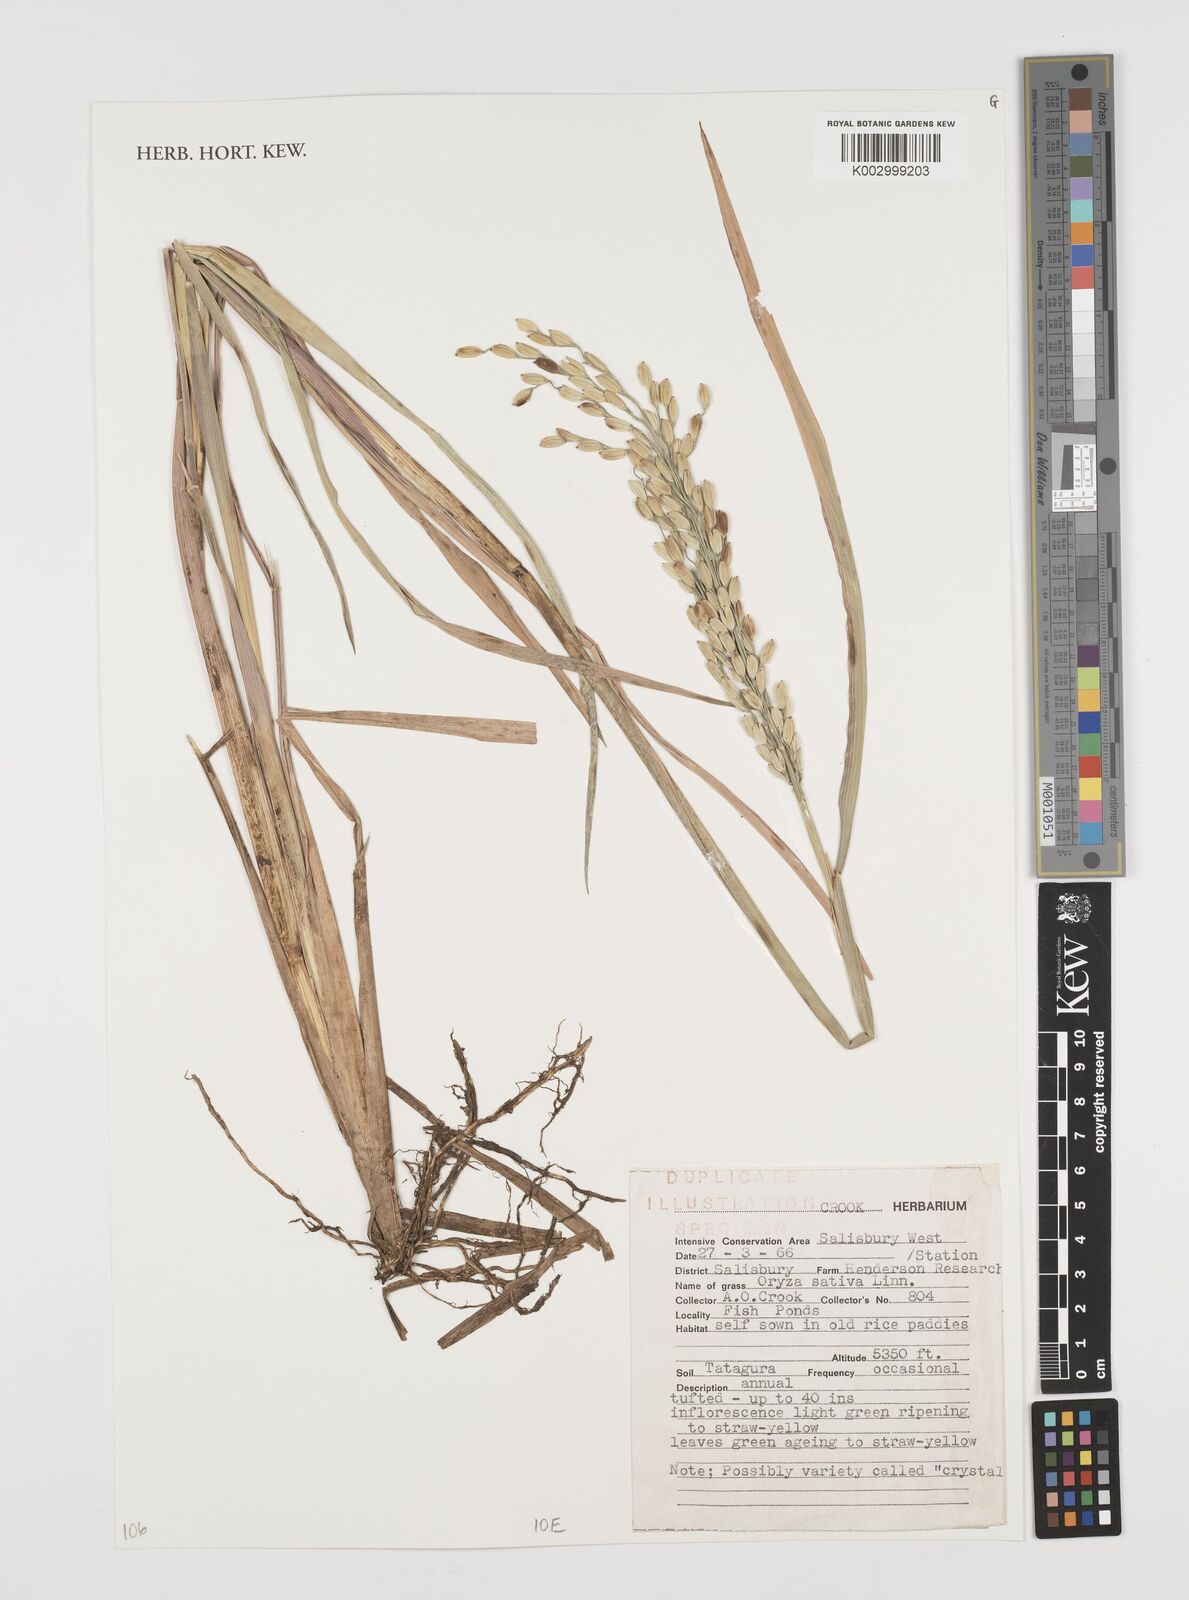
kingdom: Plantae
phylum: Tracheophyta
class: Liliopsida
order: Poales
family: Poaceae
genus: Oryza
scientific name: Oryza sativa
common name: Rice
